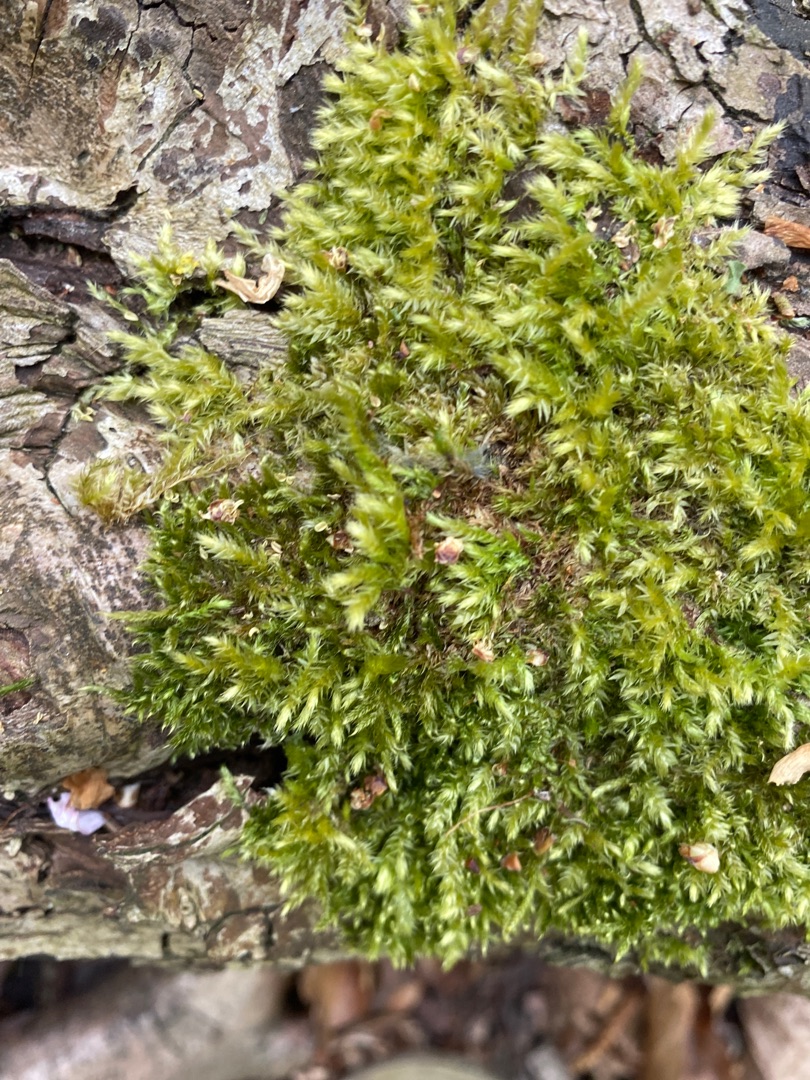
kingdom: Plantae
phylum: Bryophyta
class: Bryopsida
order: Hypnales
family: Brachytheciaceae
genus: Brachythecium
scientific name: Brachythecium rutabulum
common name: Almindelig kortkapsel
